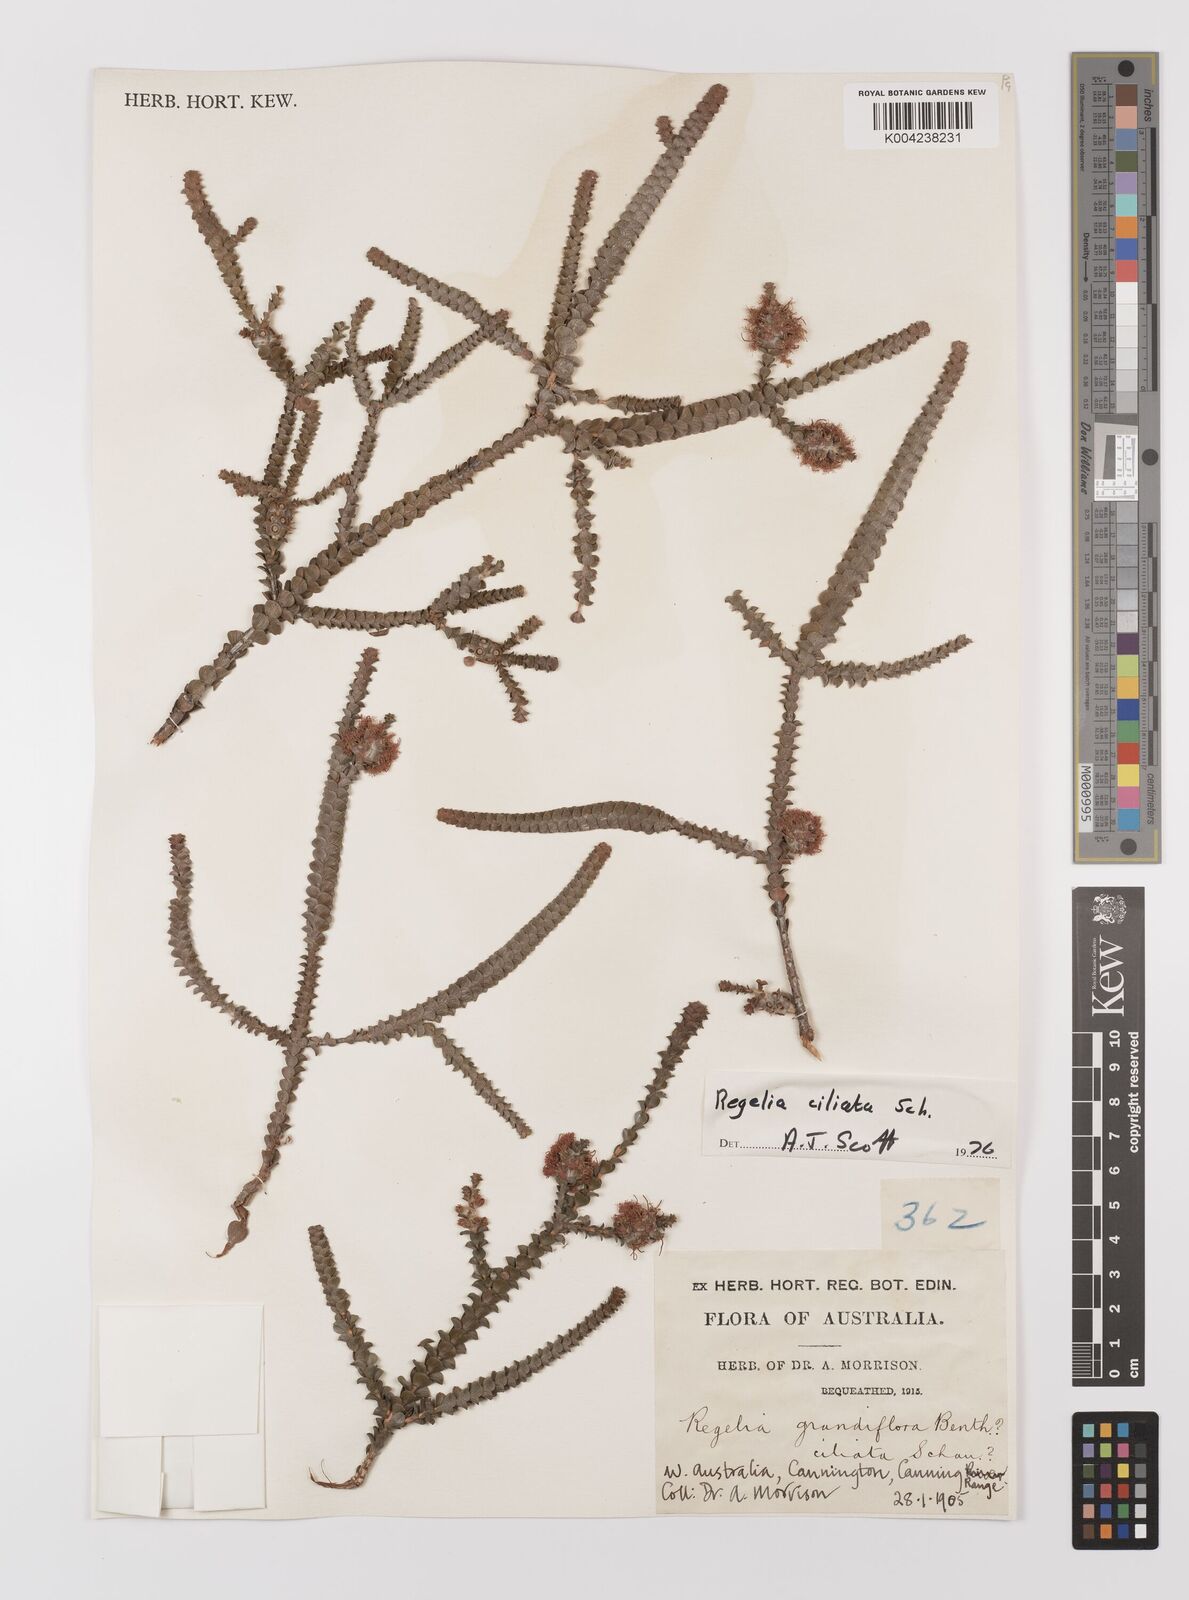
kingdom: Plantae
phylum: Tracheophyta
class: Magnoliopsida
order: Myrtales
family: Myrtaceae
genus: Melaleuca
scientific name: Melaleuca crossota
